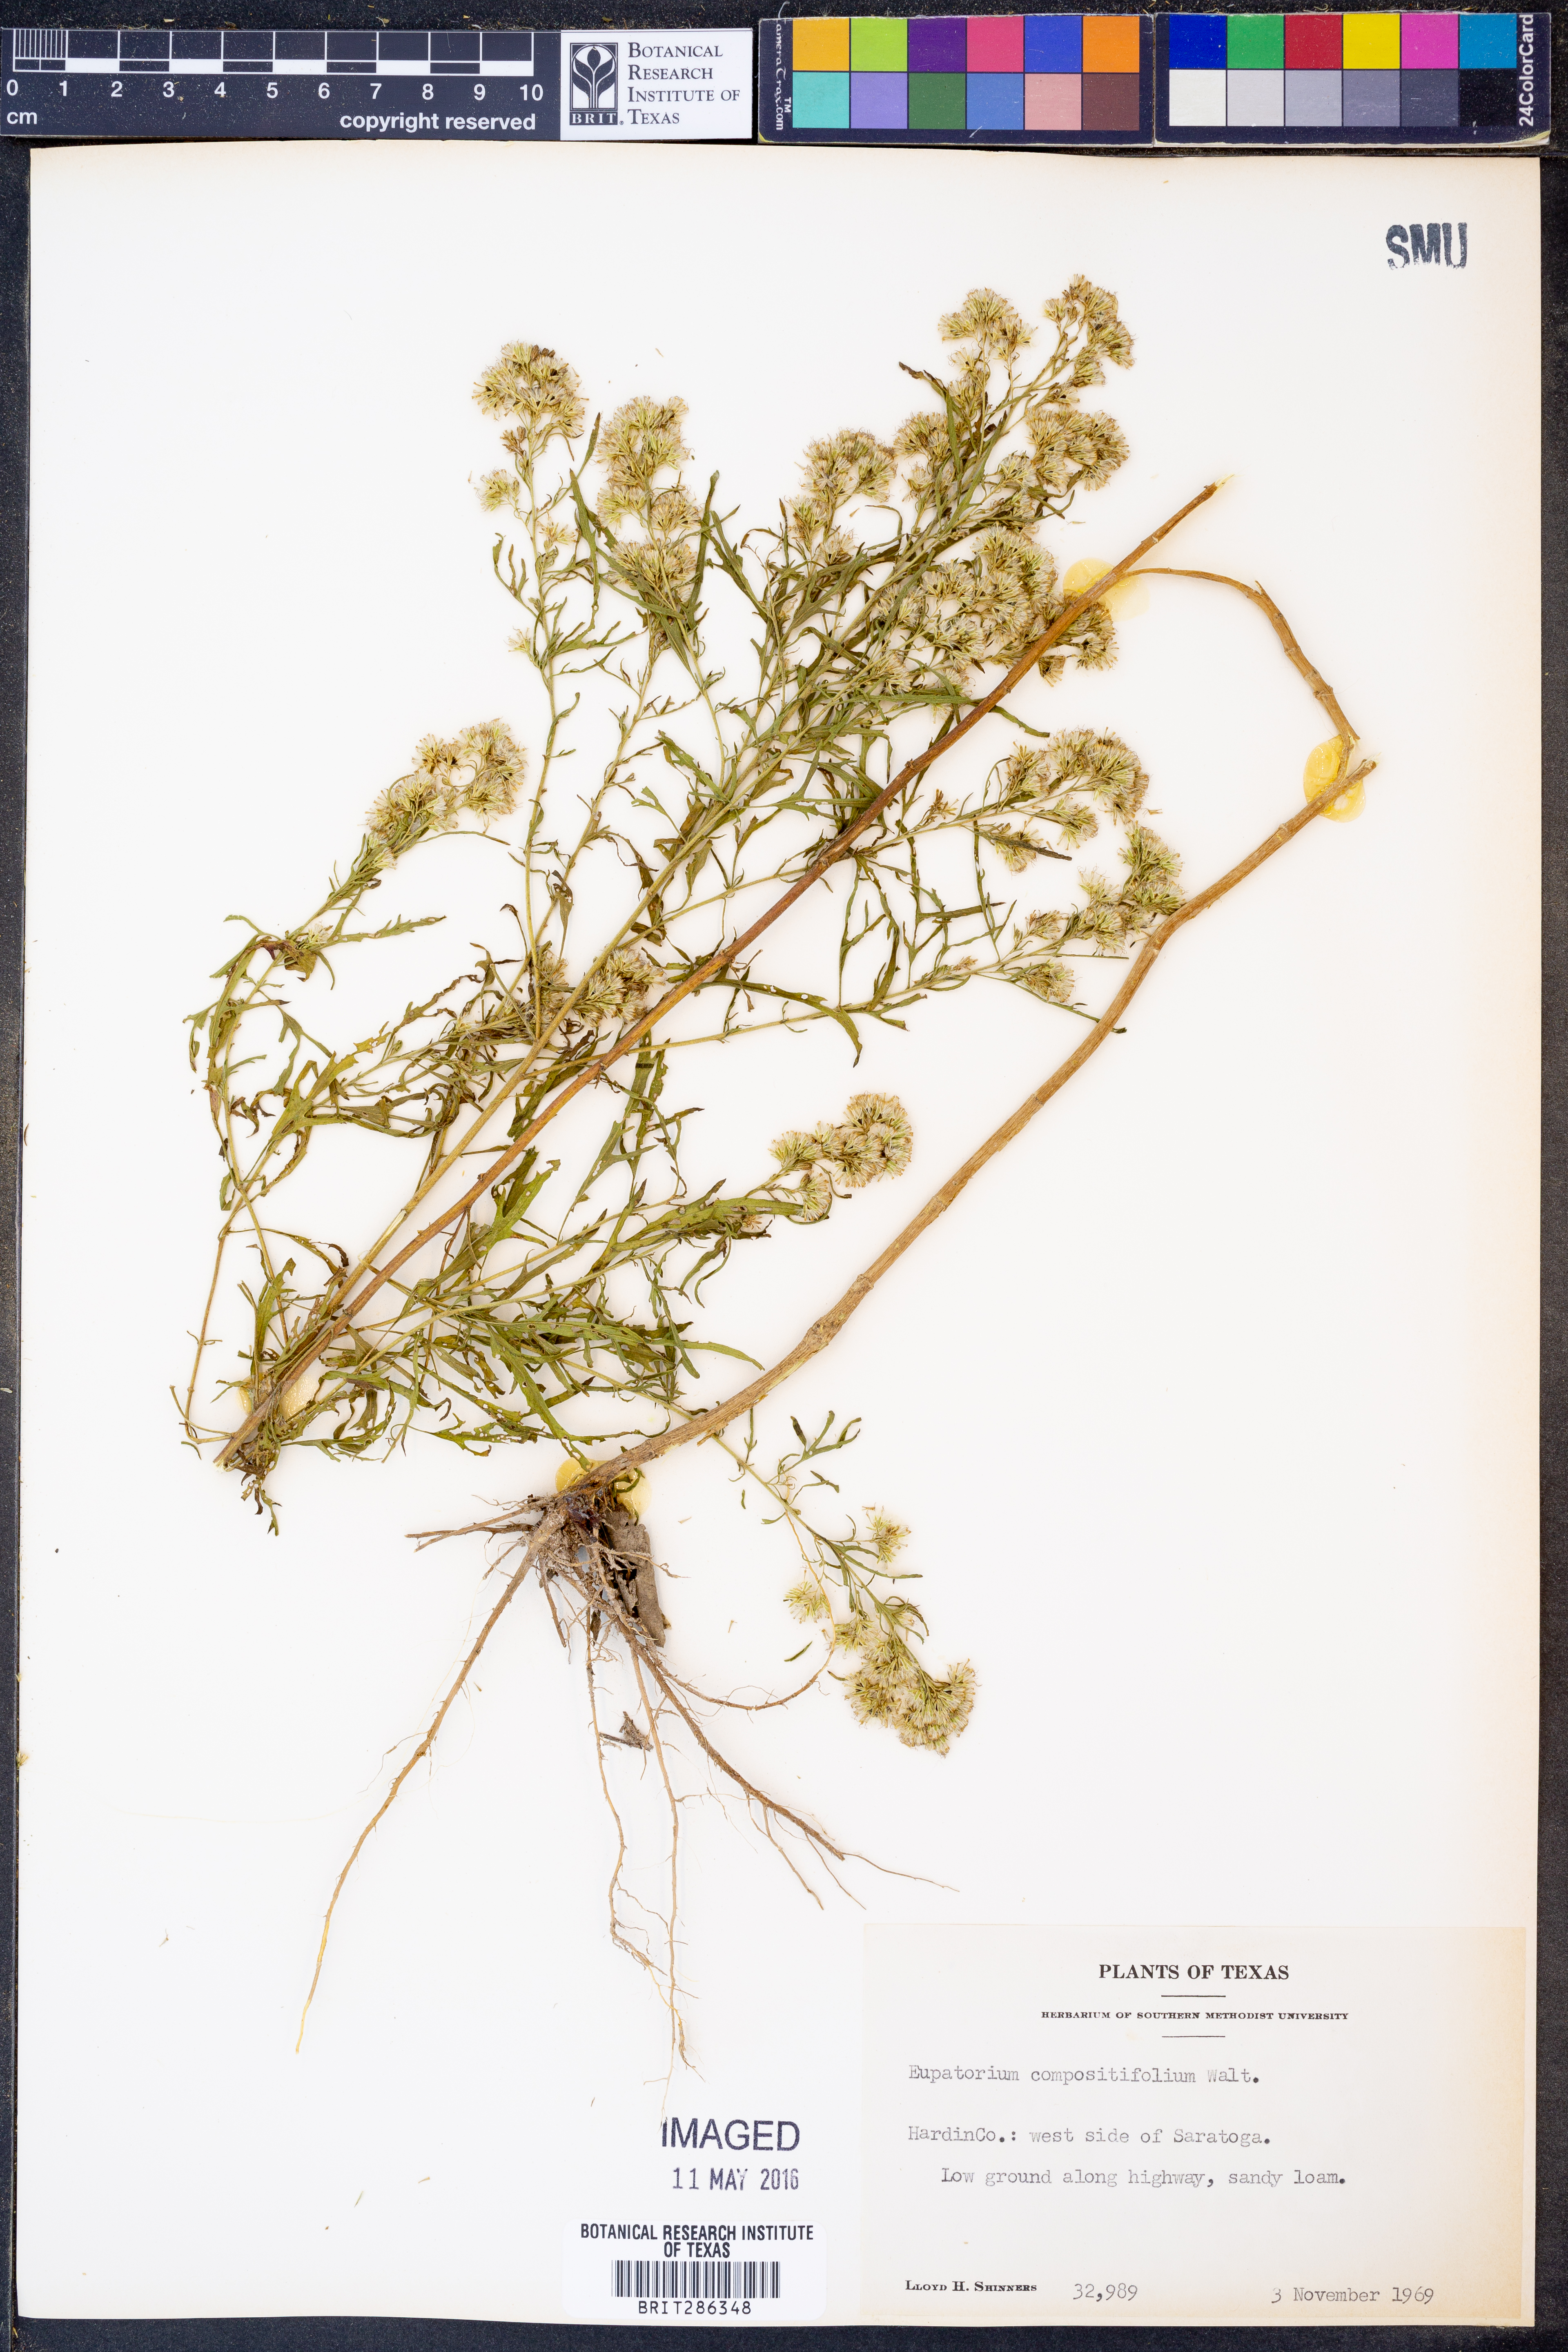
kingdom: Plantae
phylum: Tracheophyta
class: Magnoliopsida
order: Asterales
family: Asteraceae
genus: Eupatorium
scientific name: Eupatorium compositifolium
